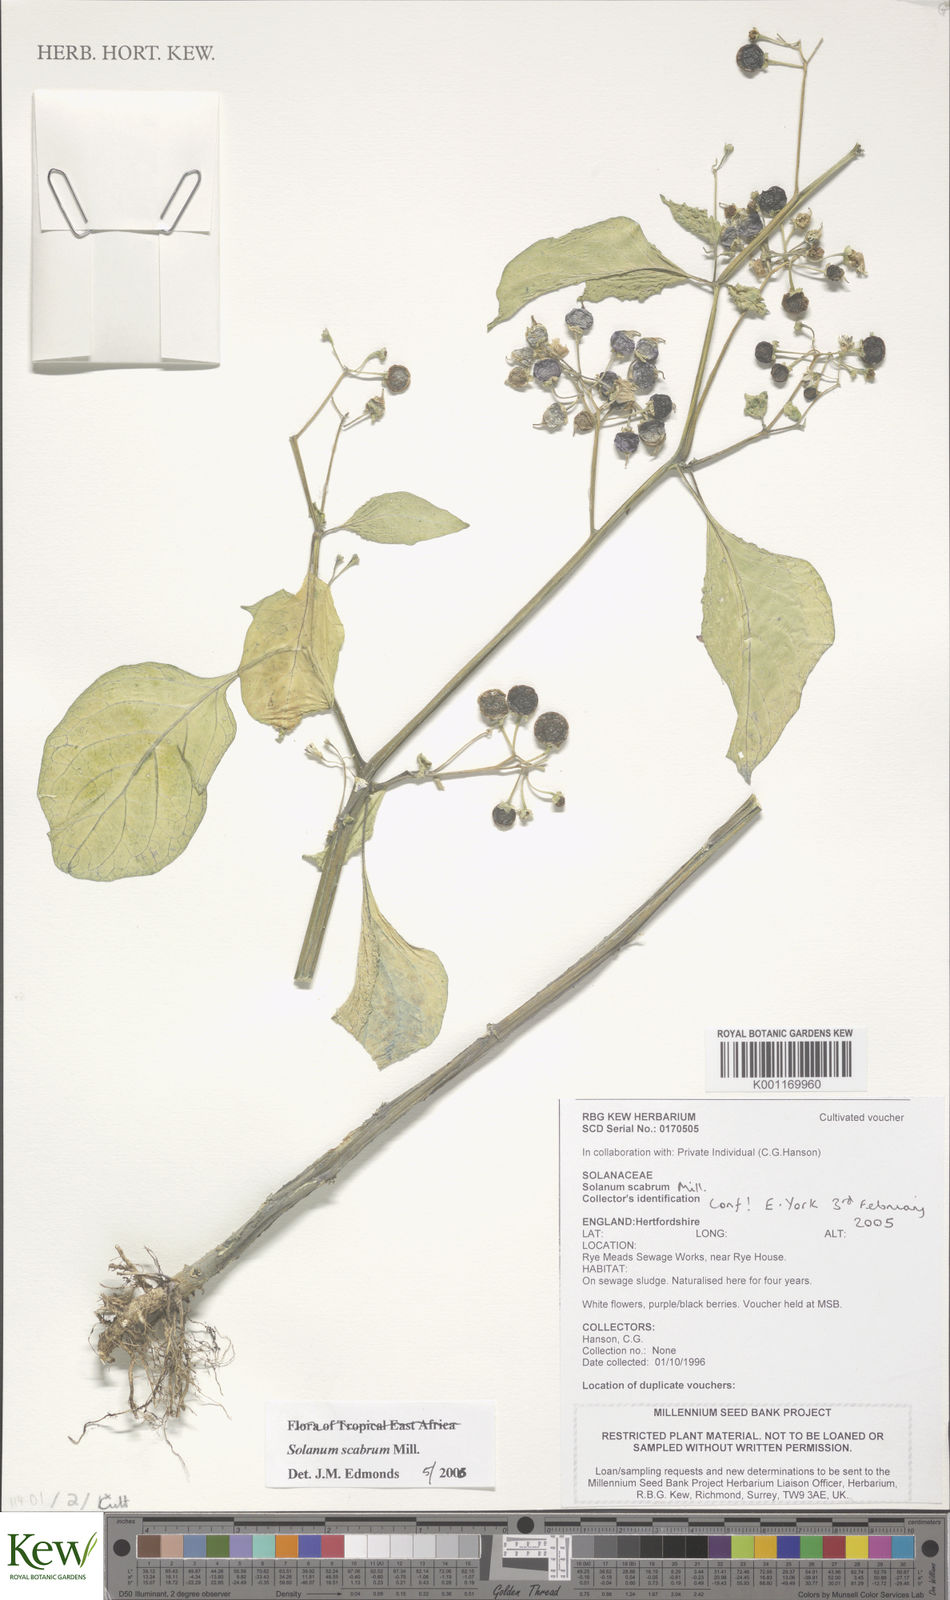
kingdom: Plantae
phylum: Tracheophyta
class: Magnoliopsida
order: Solanales
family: Solanaceae
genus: Solanum
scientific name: Solanum scabrum
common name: Garden-huckleberry
